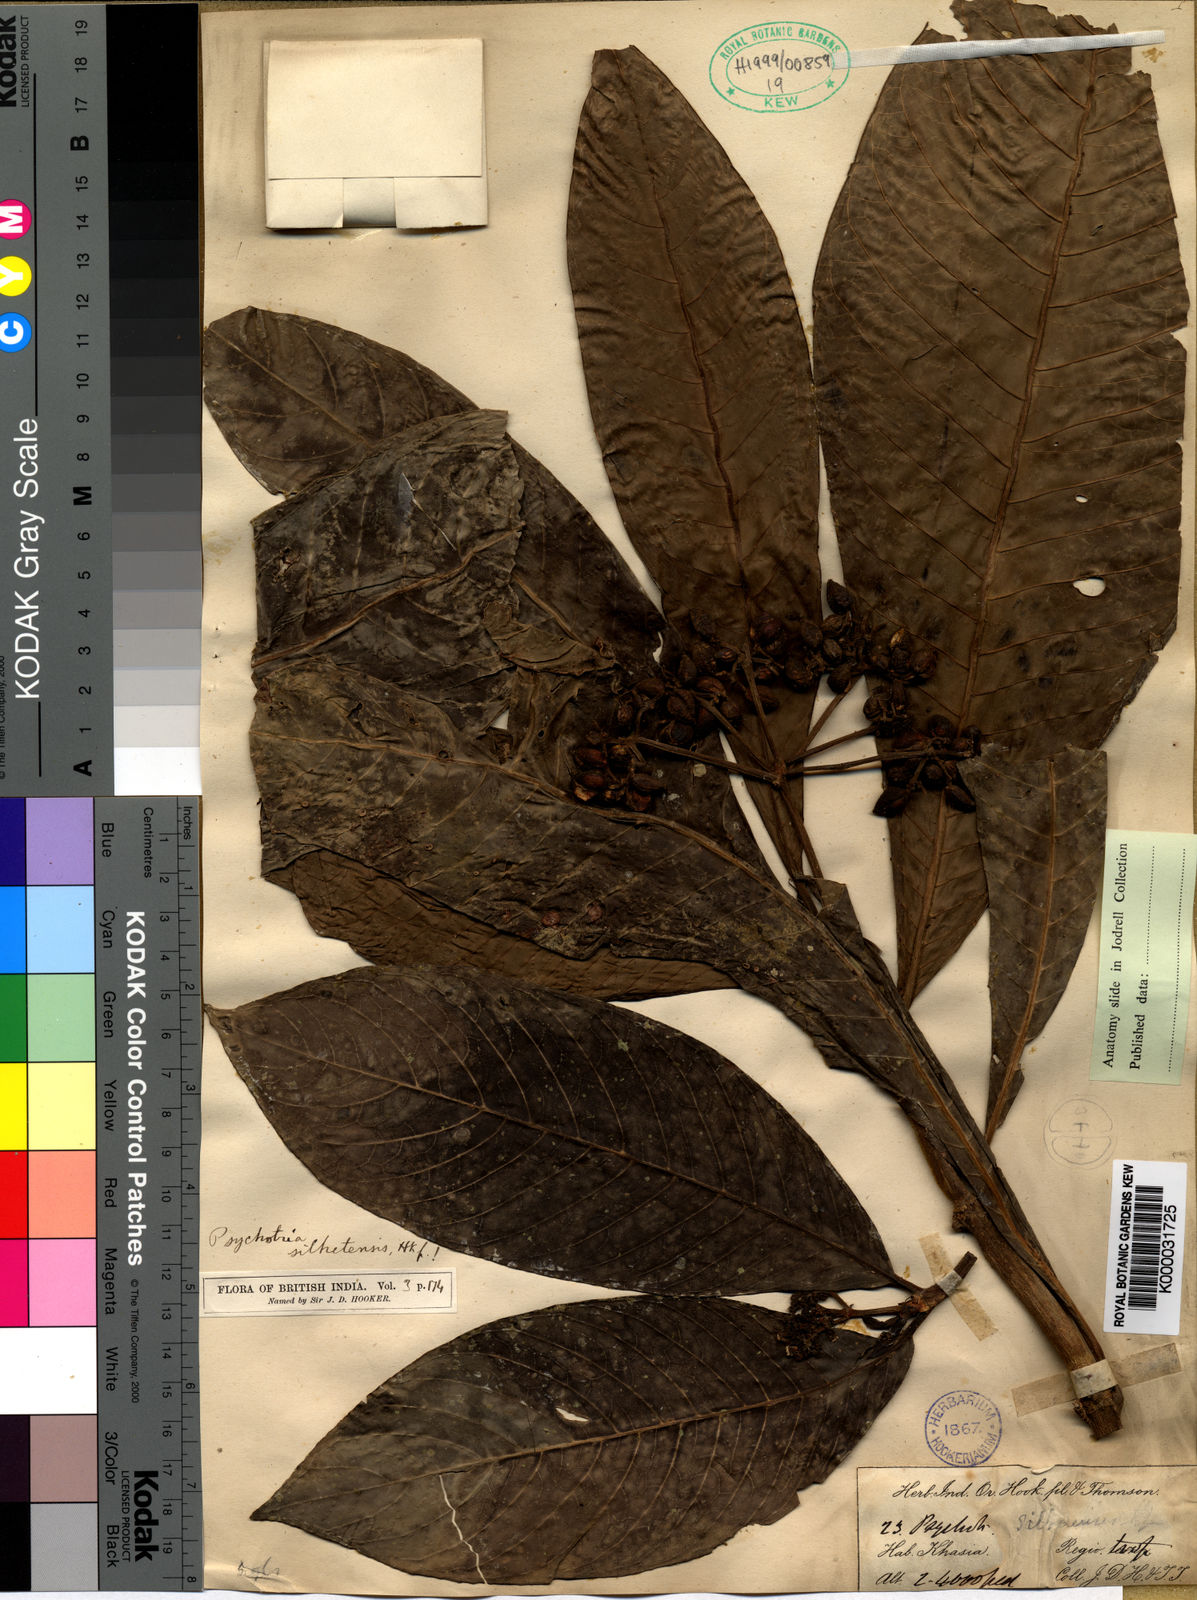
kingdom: Plantae
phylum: Tracheophyta
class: Magnoliopsida
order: Gentianales
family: Rubiaceae
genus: Psychotria
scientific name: Psychotria silhetensis
